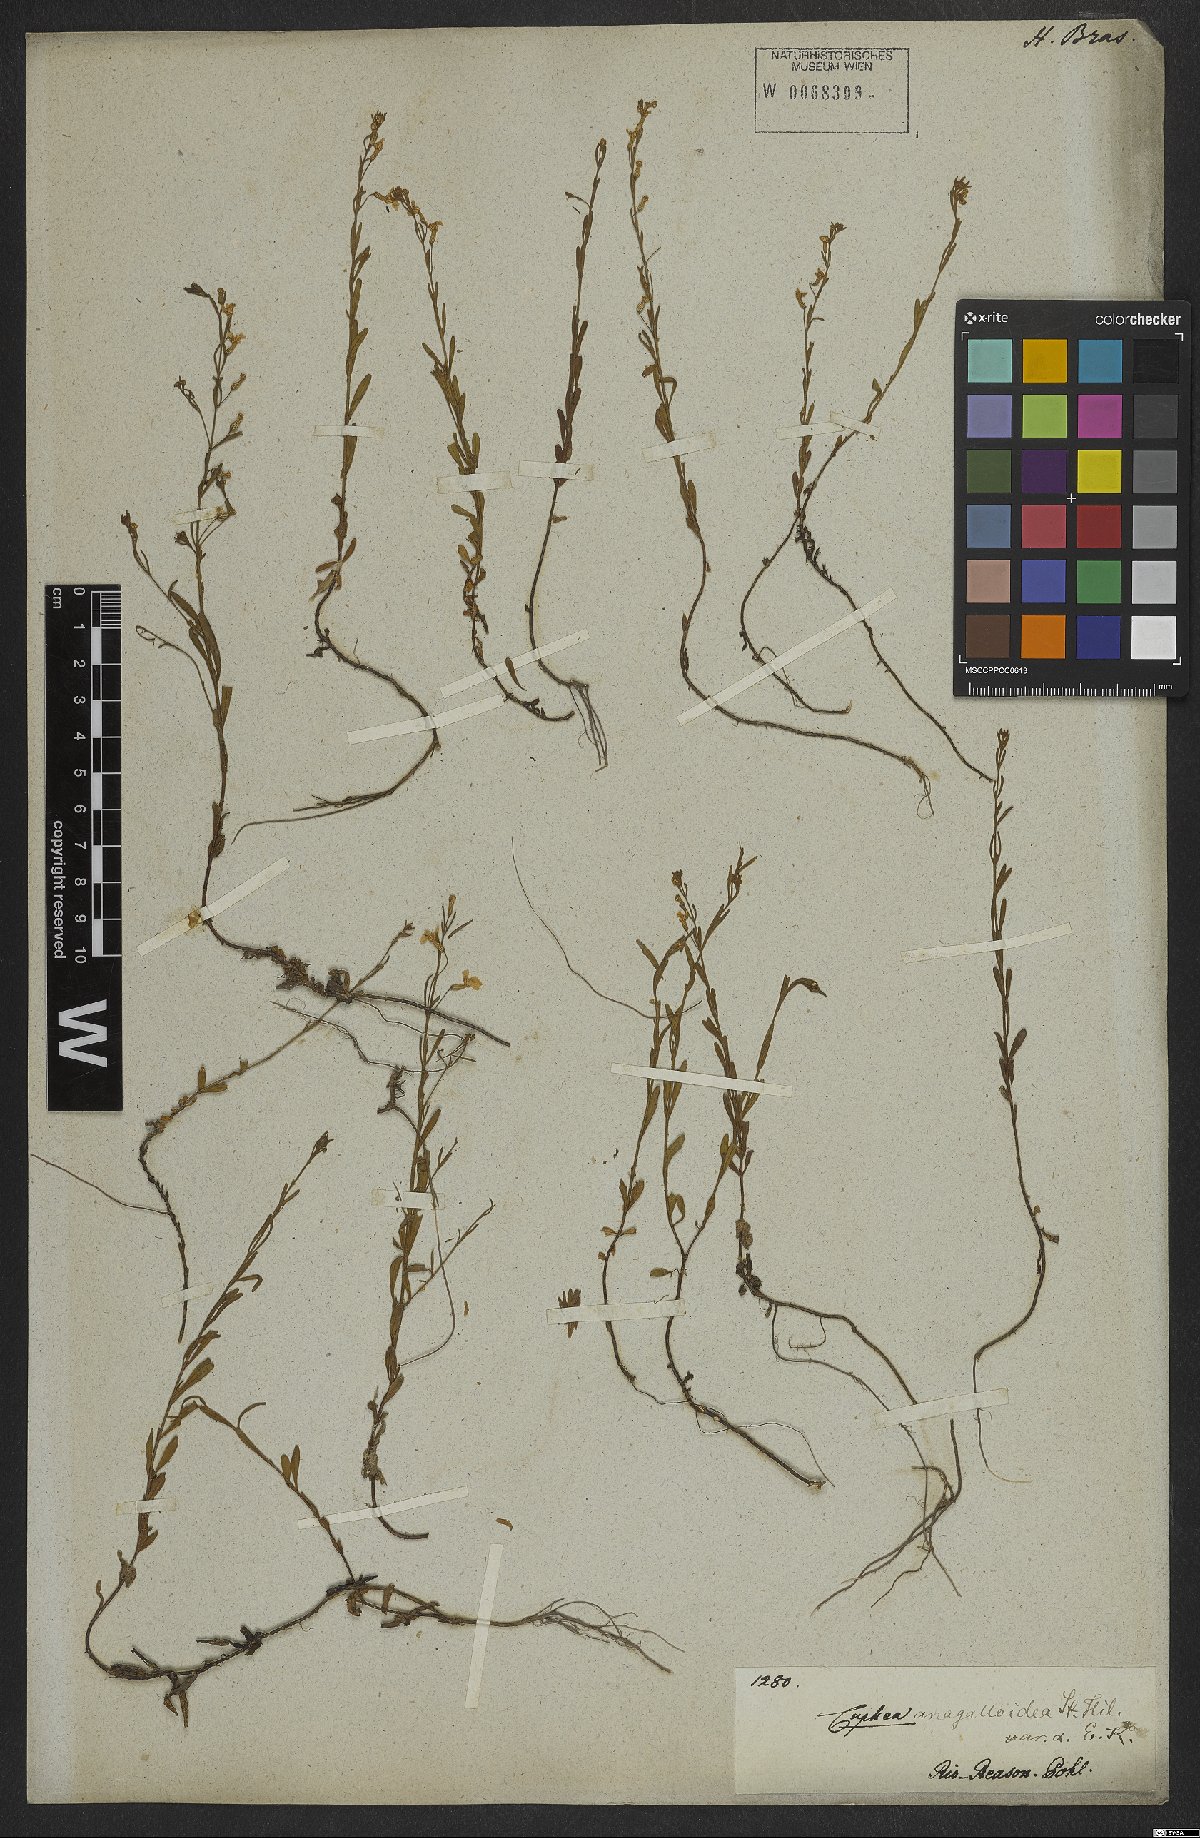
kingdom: Plantae
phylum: Tracheophyta
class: Magnoliopsida
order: Myrtales
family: Lythraceae
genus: Cuphea
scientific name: Cuphea anagalloidea
